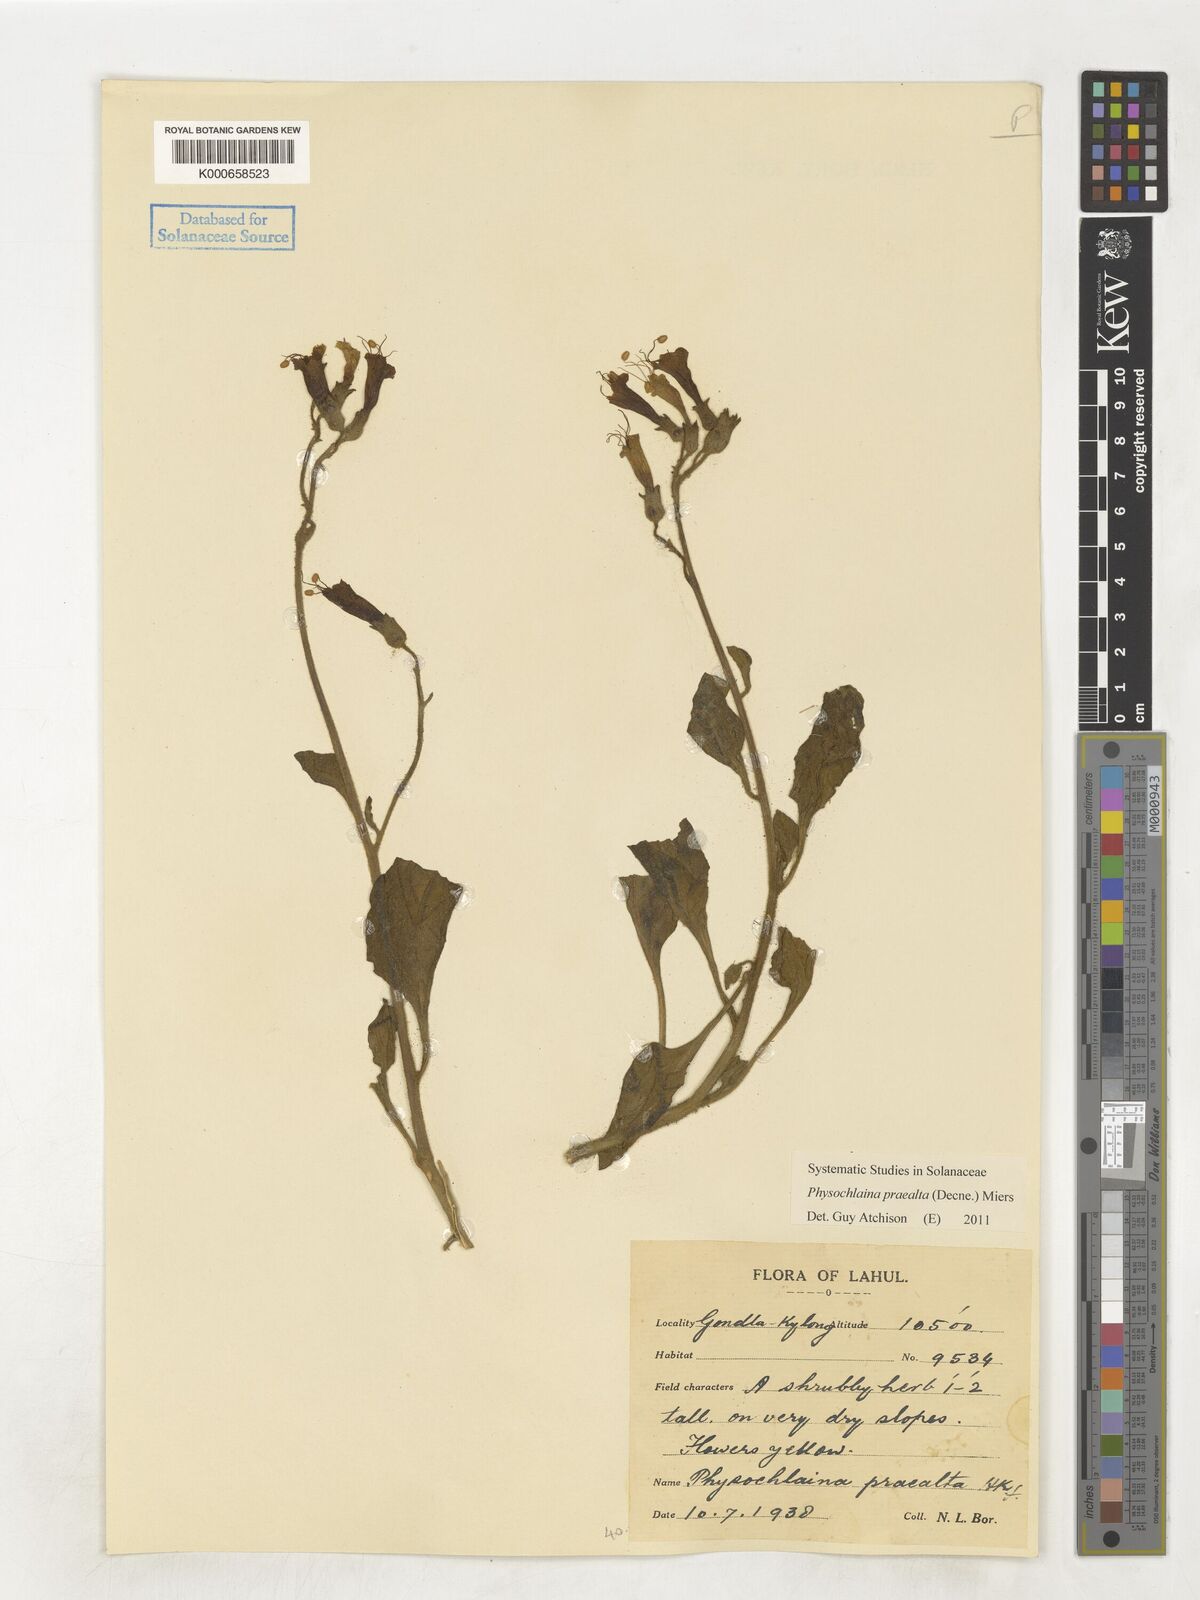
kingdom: Plantae
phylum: Tracheophyta
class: Magnoliopsida
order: Solanales
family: Solanaceae
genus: Physochlaina
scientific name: Physochlaina praealta
